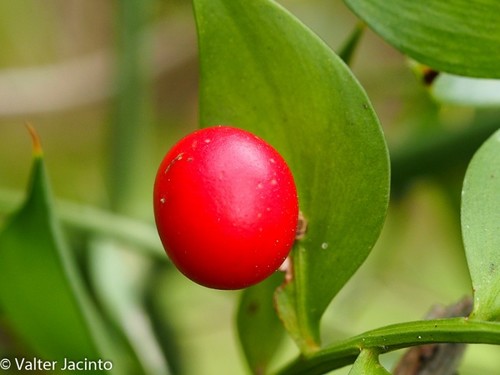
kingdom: Plantae
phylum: Tracheophyta
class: Liliopsida
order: Asparagales
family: Asparagaceae
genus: Ruscus
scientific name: Ruscus aculeatus
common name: Butcher's-broom
